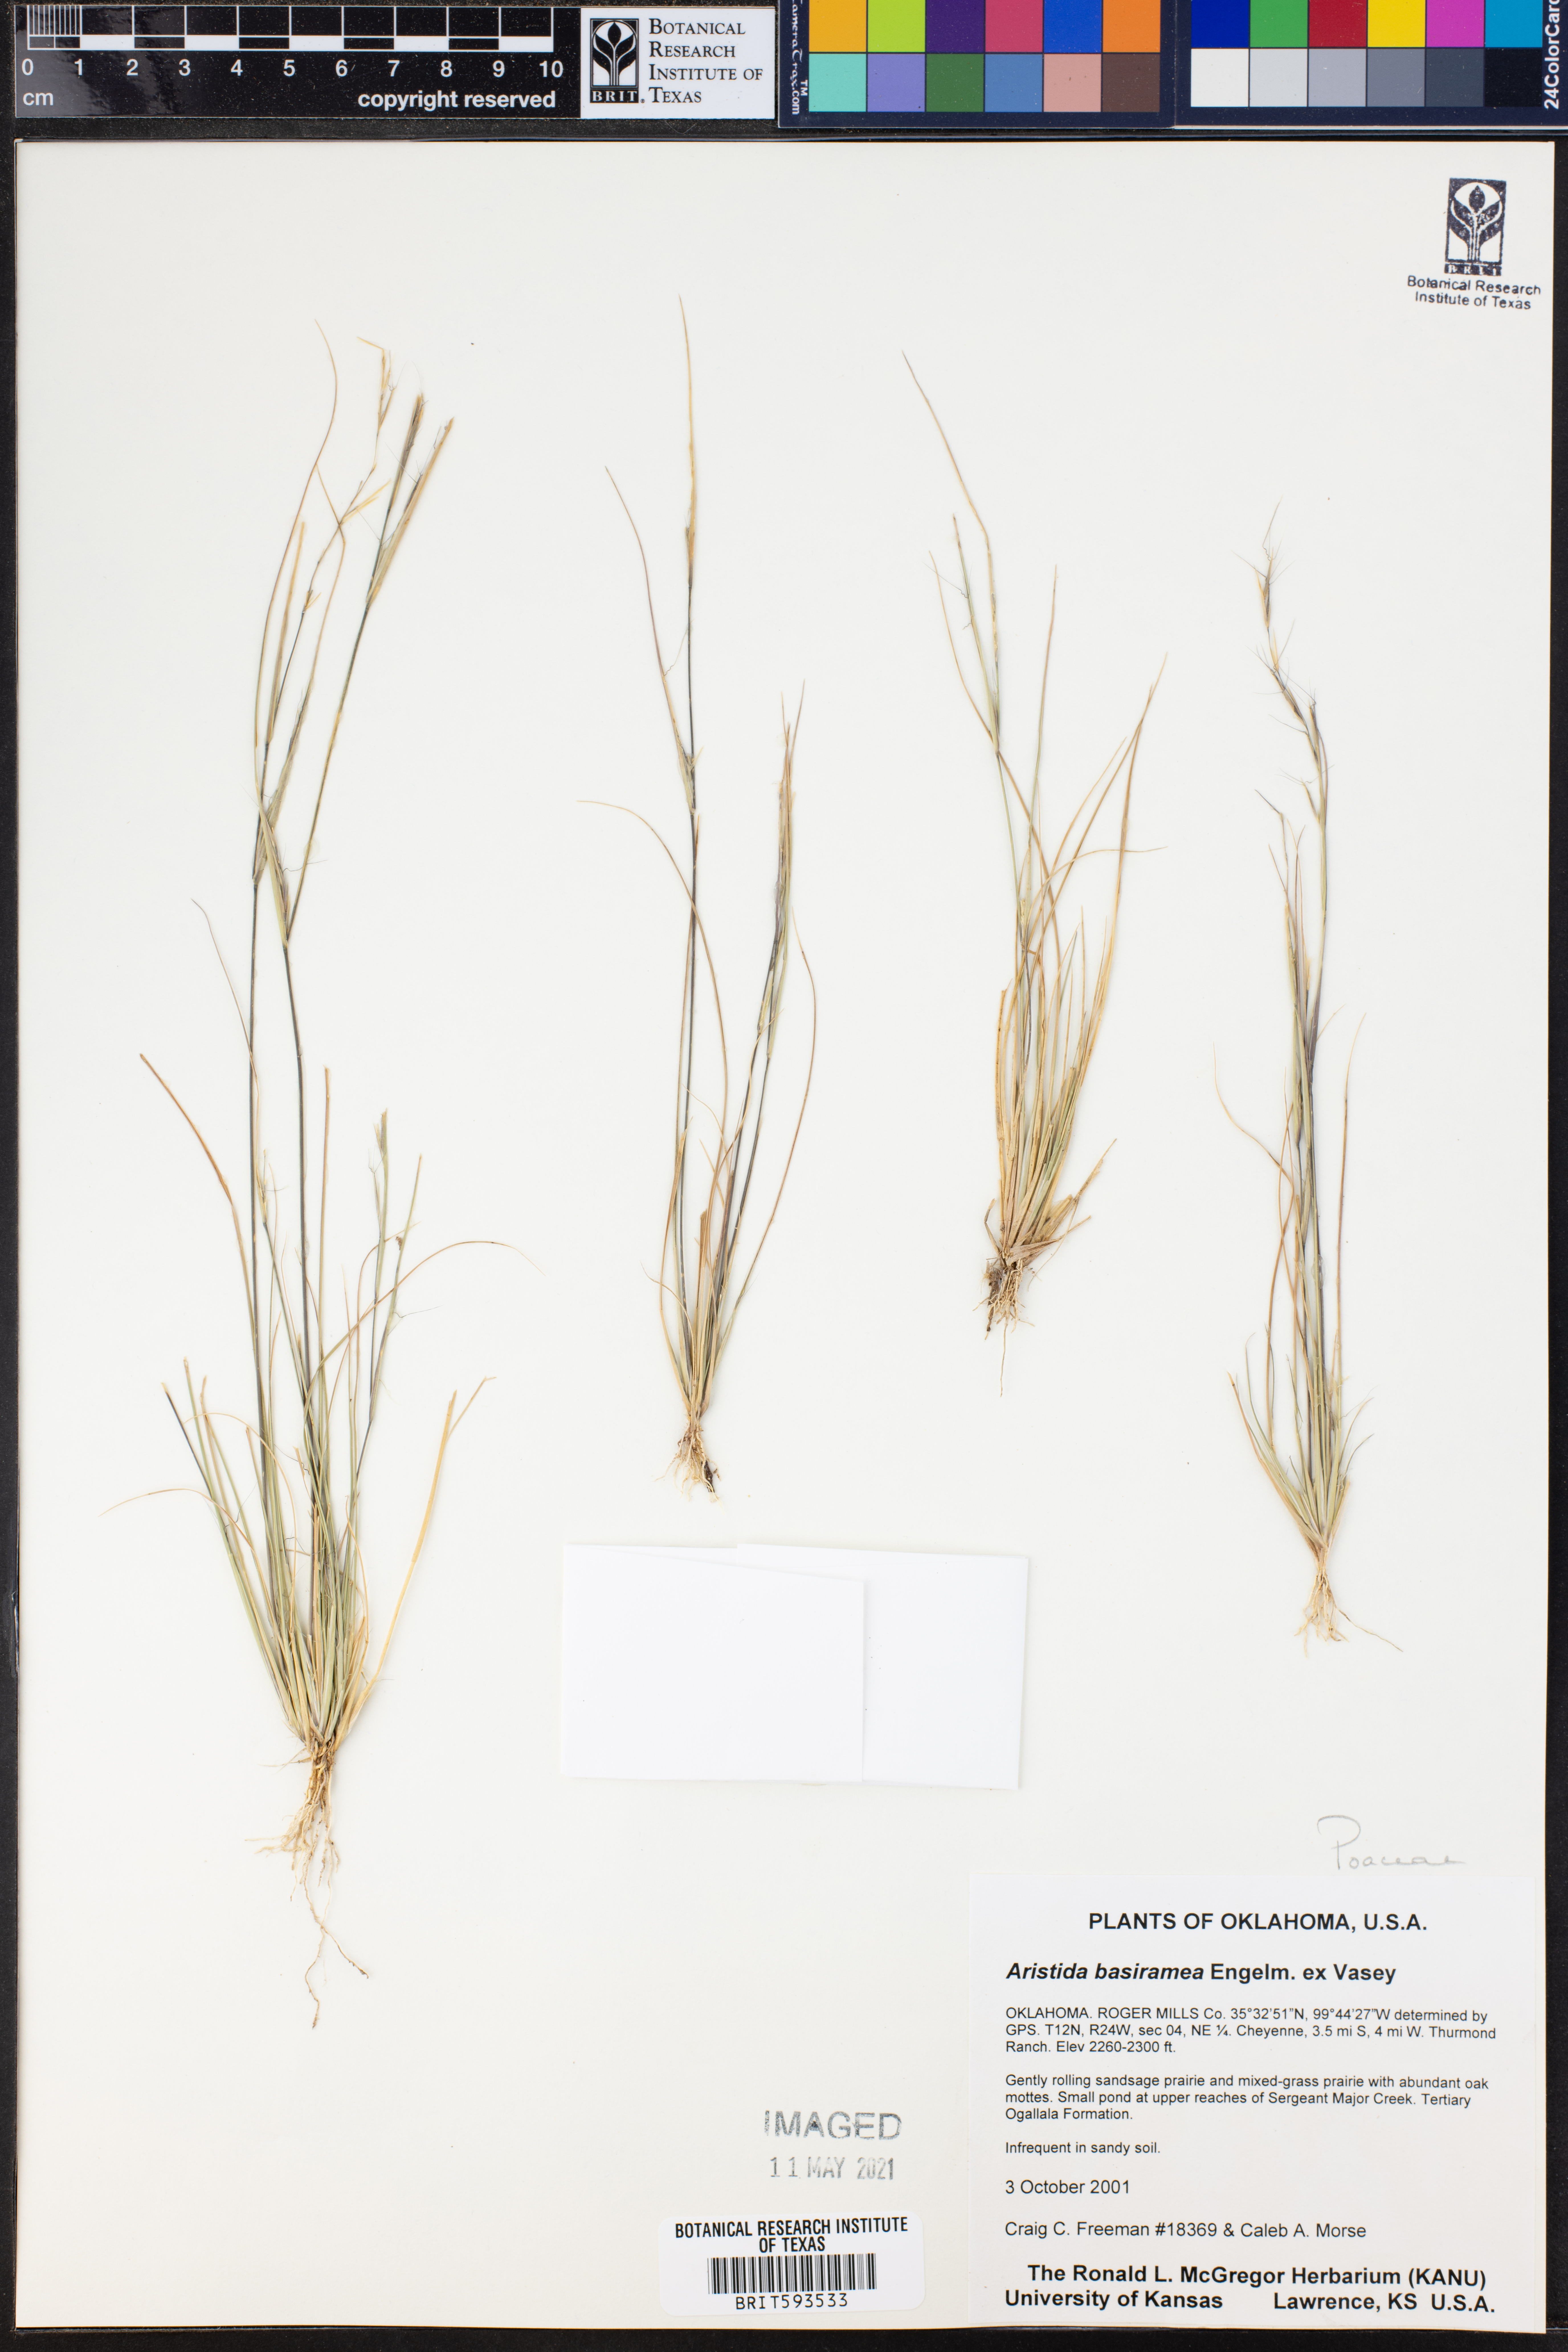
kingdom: Plantae
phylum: Tracheophyta
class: Liliopsida
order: Poales
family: Poaceae
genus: Aristida
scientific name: Aristida basiramea
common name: Forked three-awned grass
